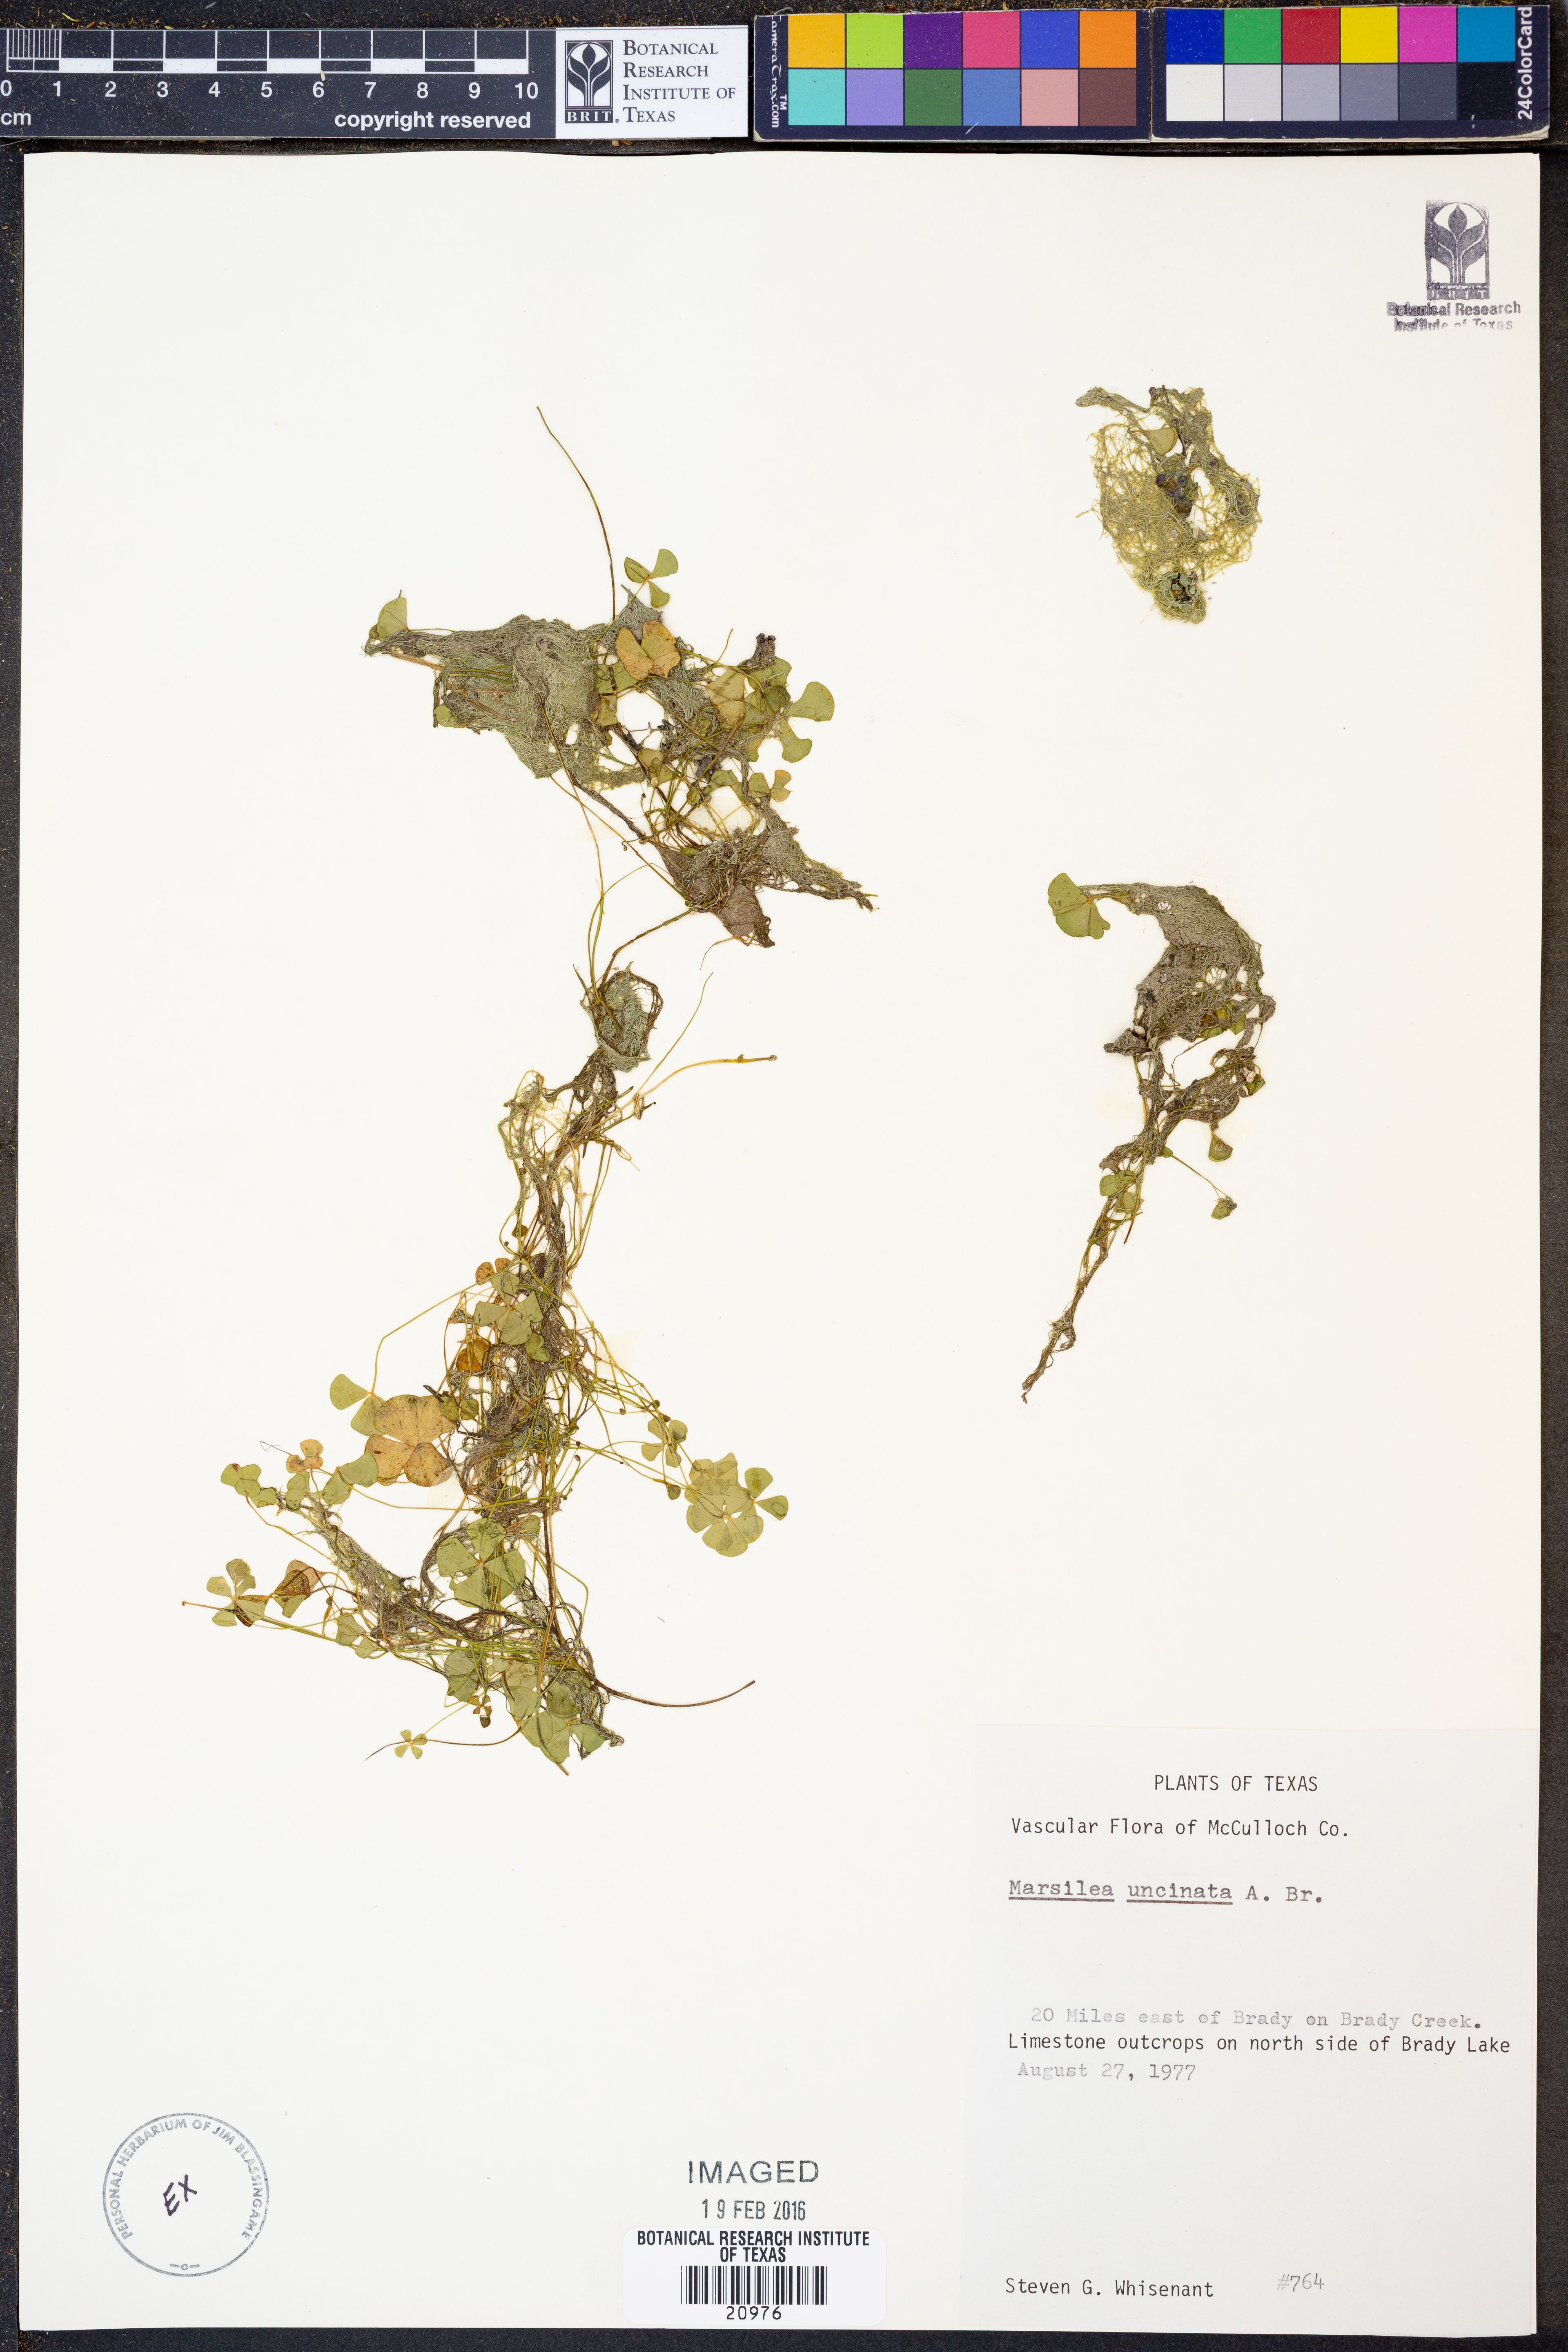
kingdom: Plantae
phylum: Tracheophyta
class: Polypodiopsida
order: Salviniales
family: Marsileaceae
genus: Marsilea
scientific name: Marsilea vestita
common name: Hooked-pepperwort
